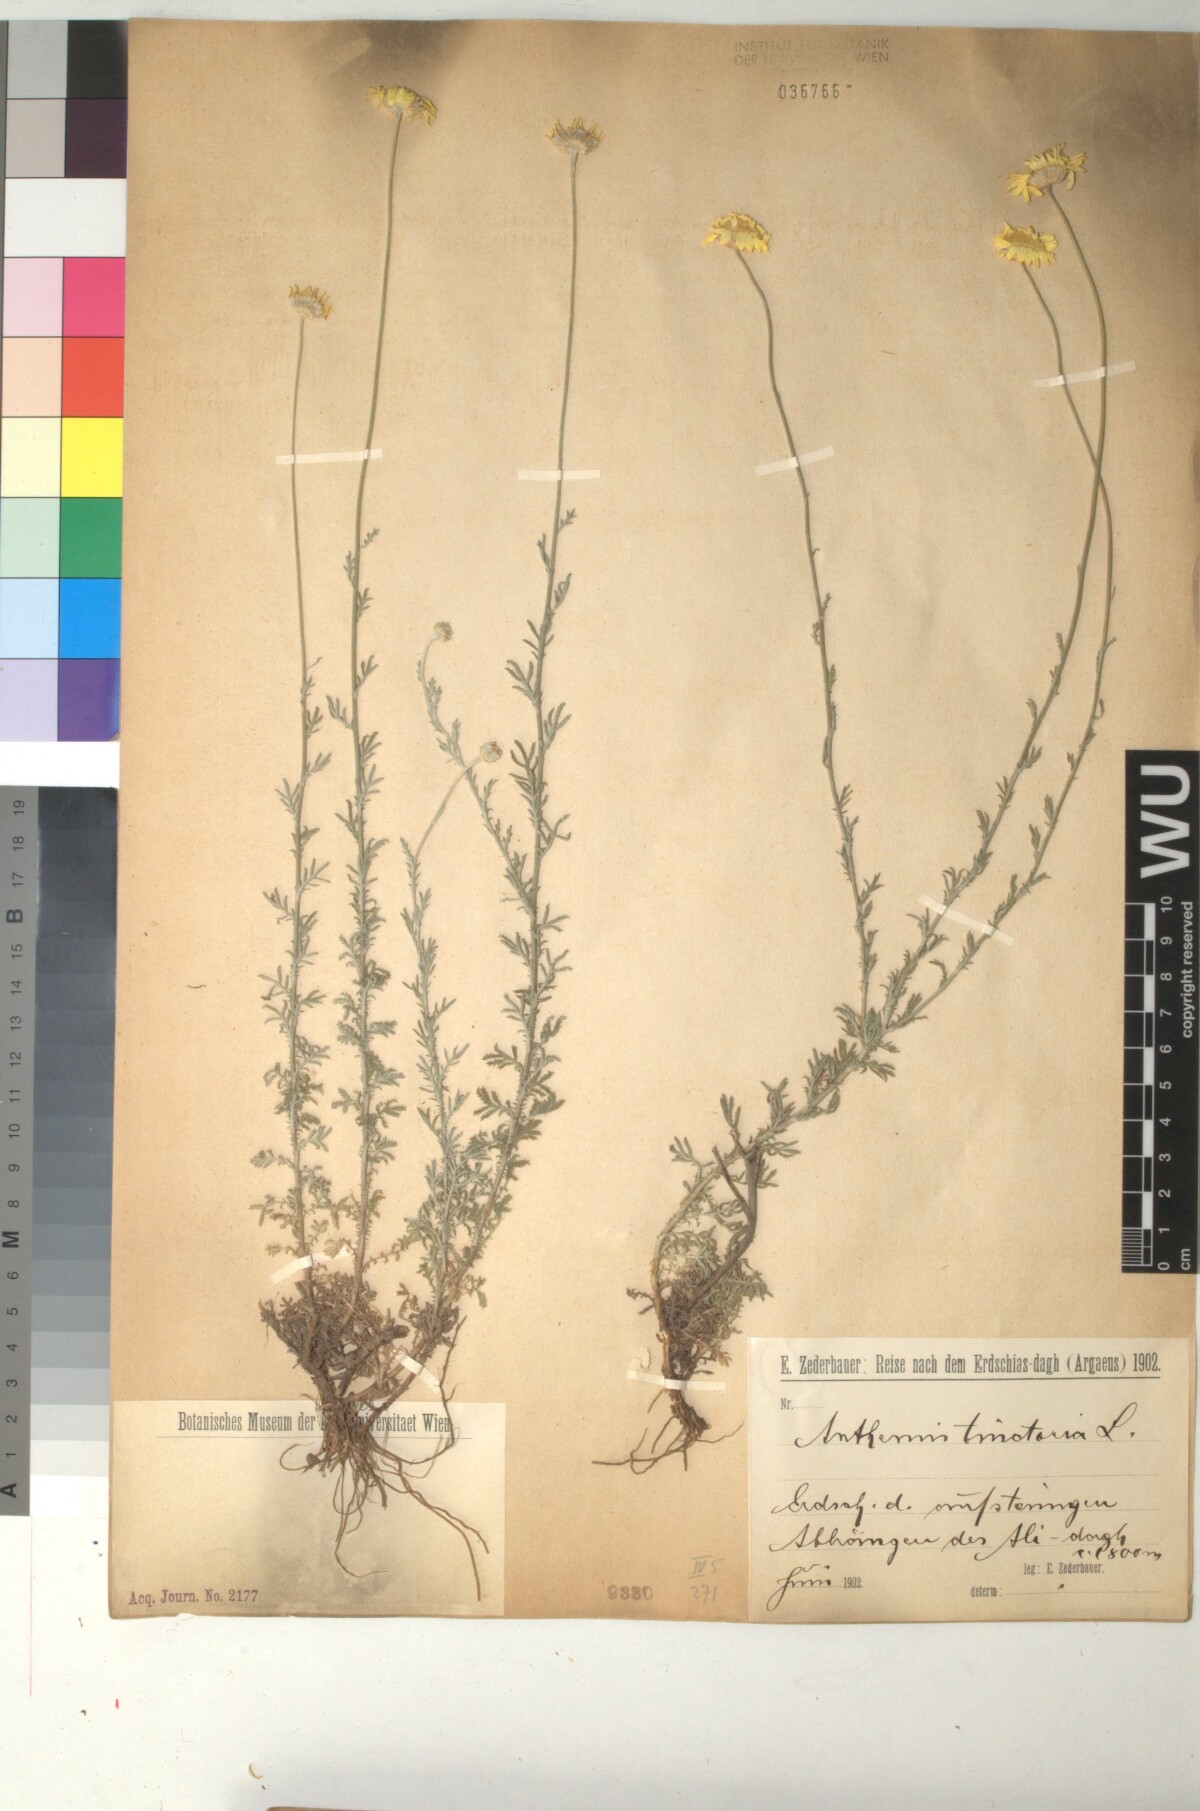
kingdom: Plantae
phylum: Tracheophyta
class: Magnoliopsida
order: Asterales
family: Asteraceae
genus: Cota
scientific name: Cota tinctoria
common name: Golden chamomile
